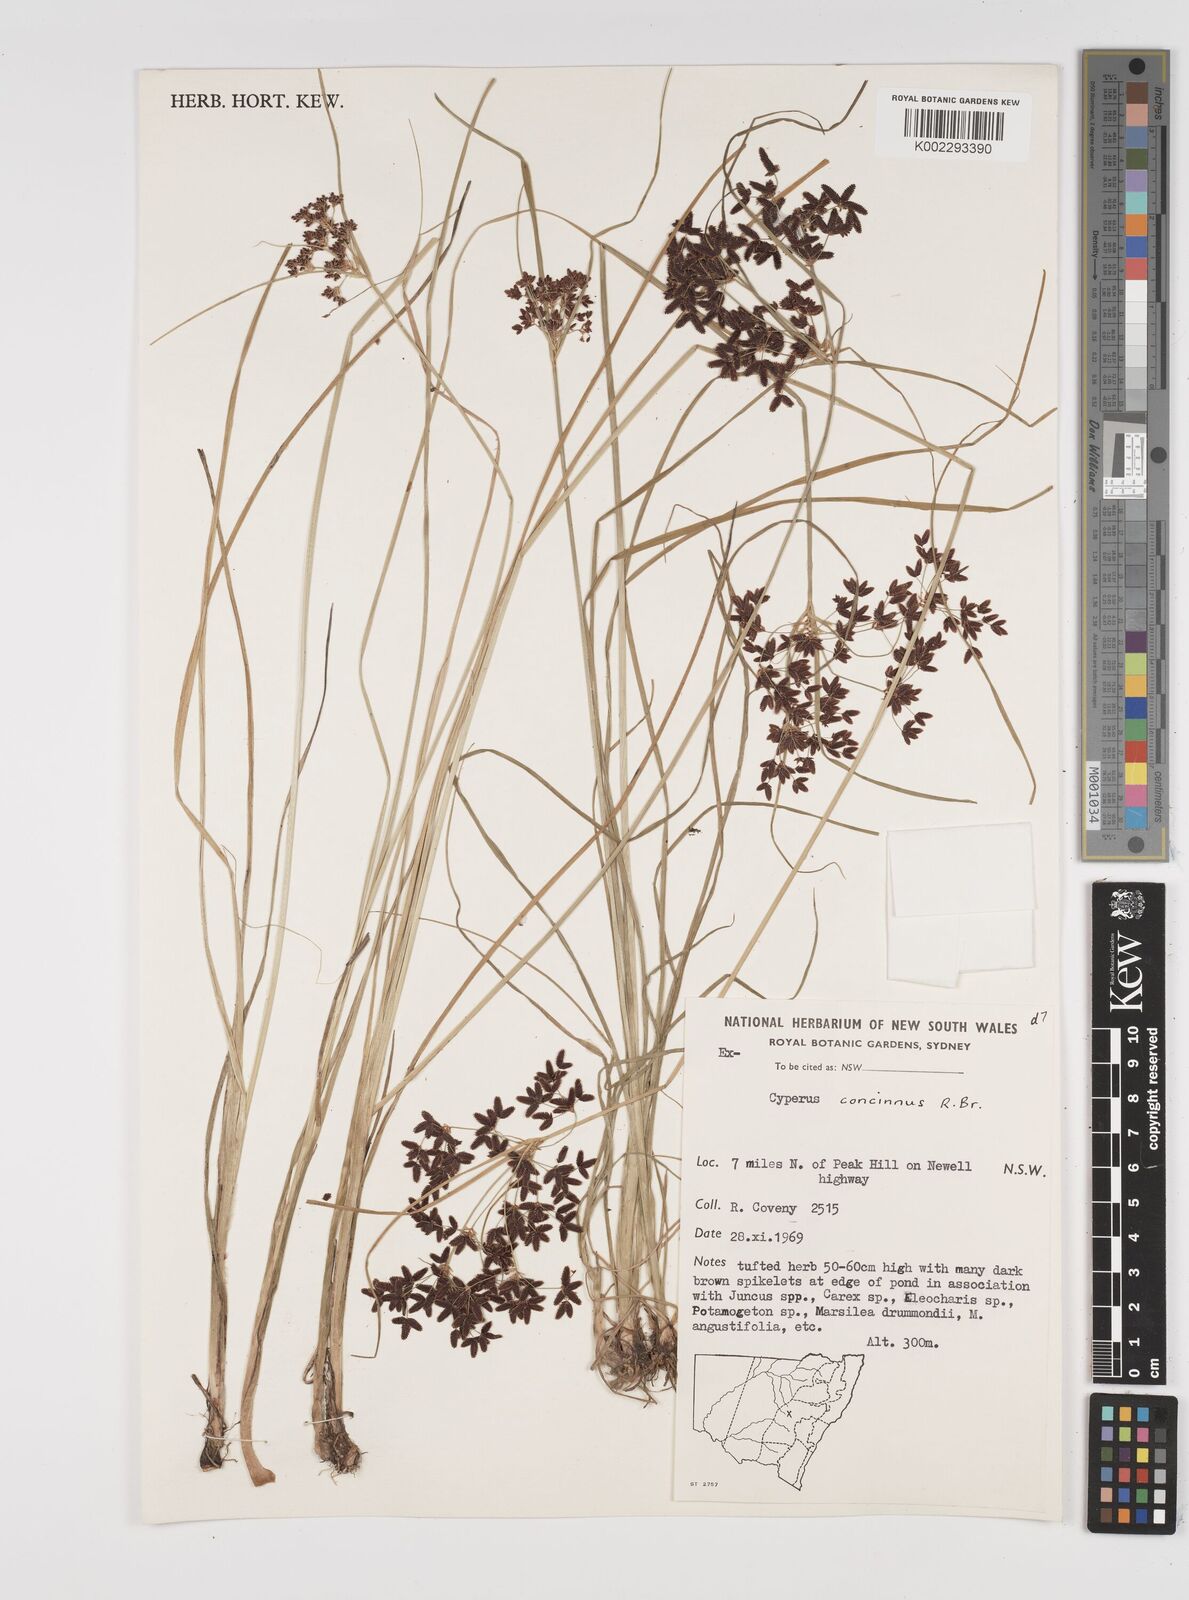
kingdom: Plantae
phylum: Tracheophyta
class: Liliopsida
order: Poales
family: Cyperaceae
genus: Cyperus
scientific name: Cyperus concinnus
